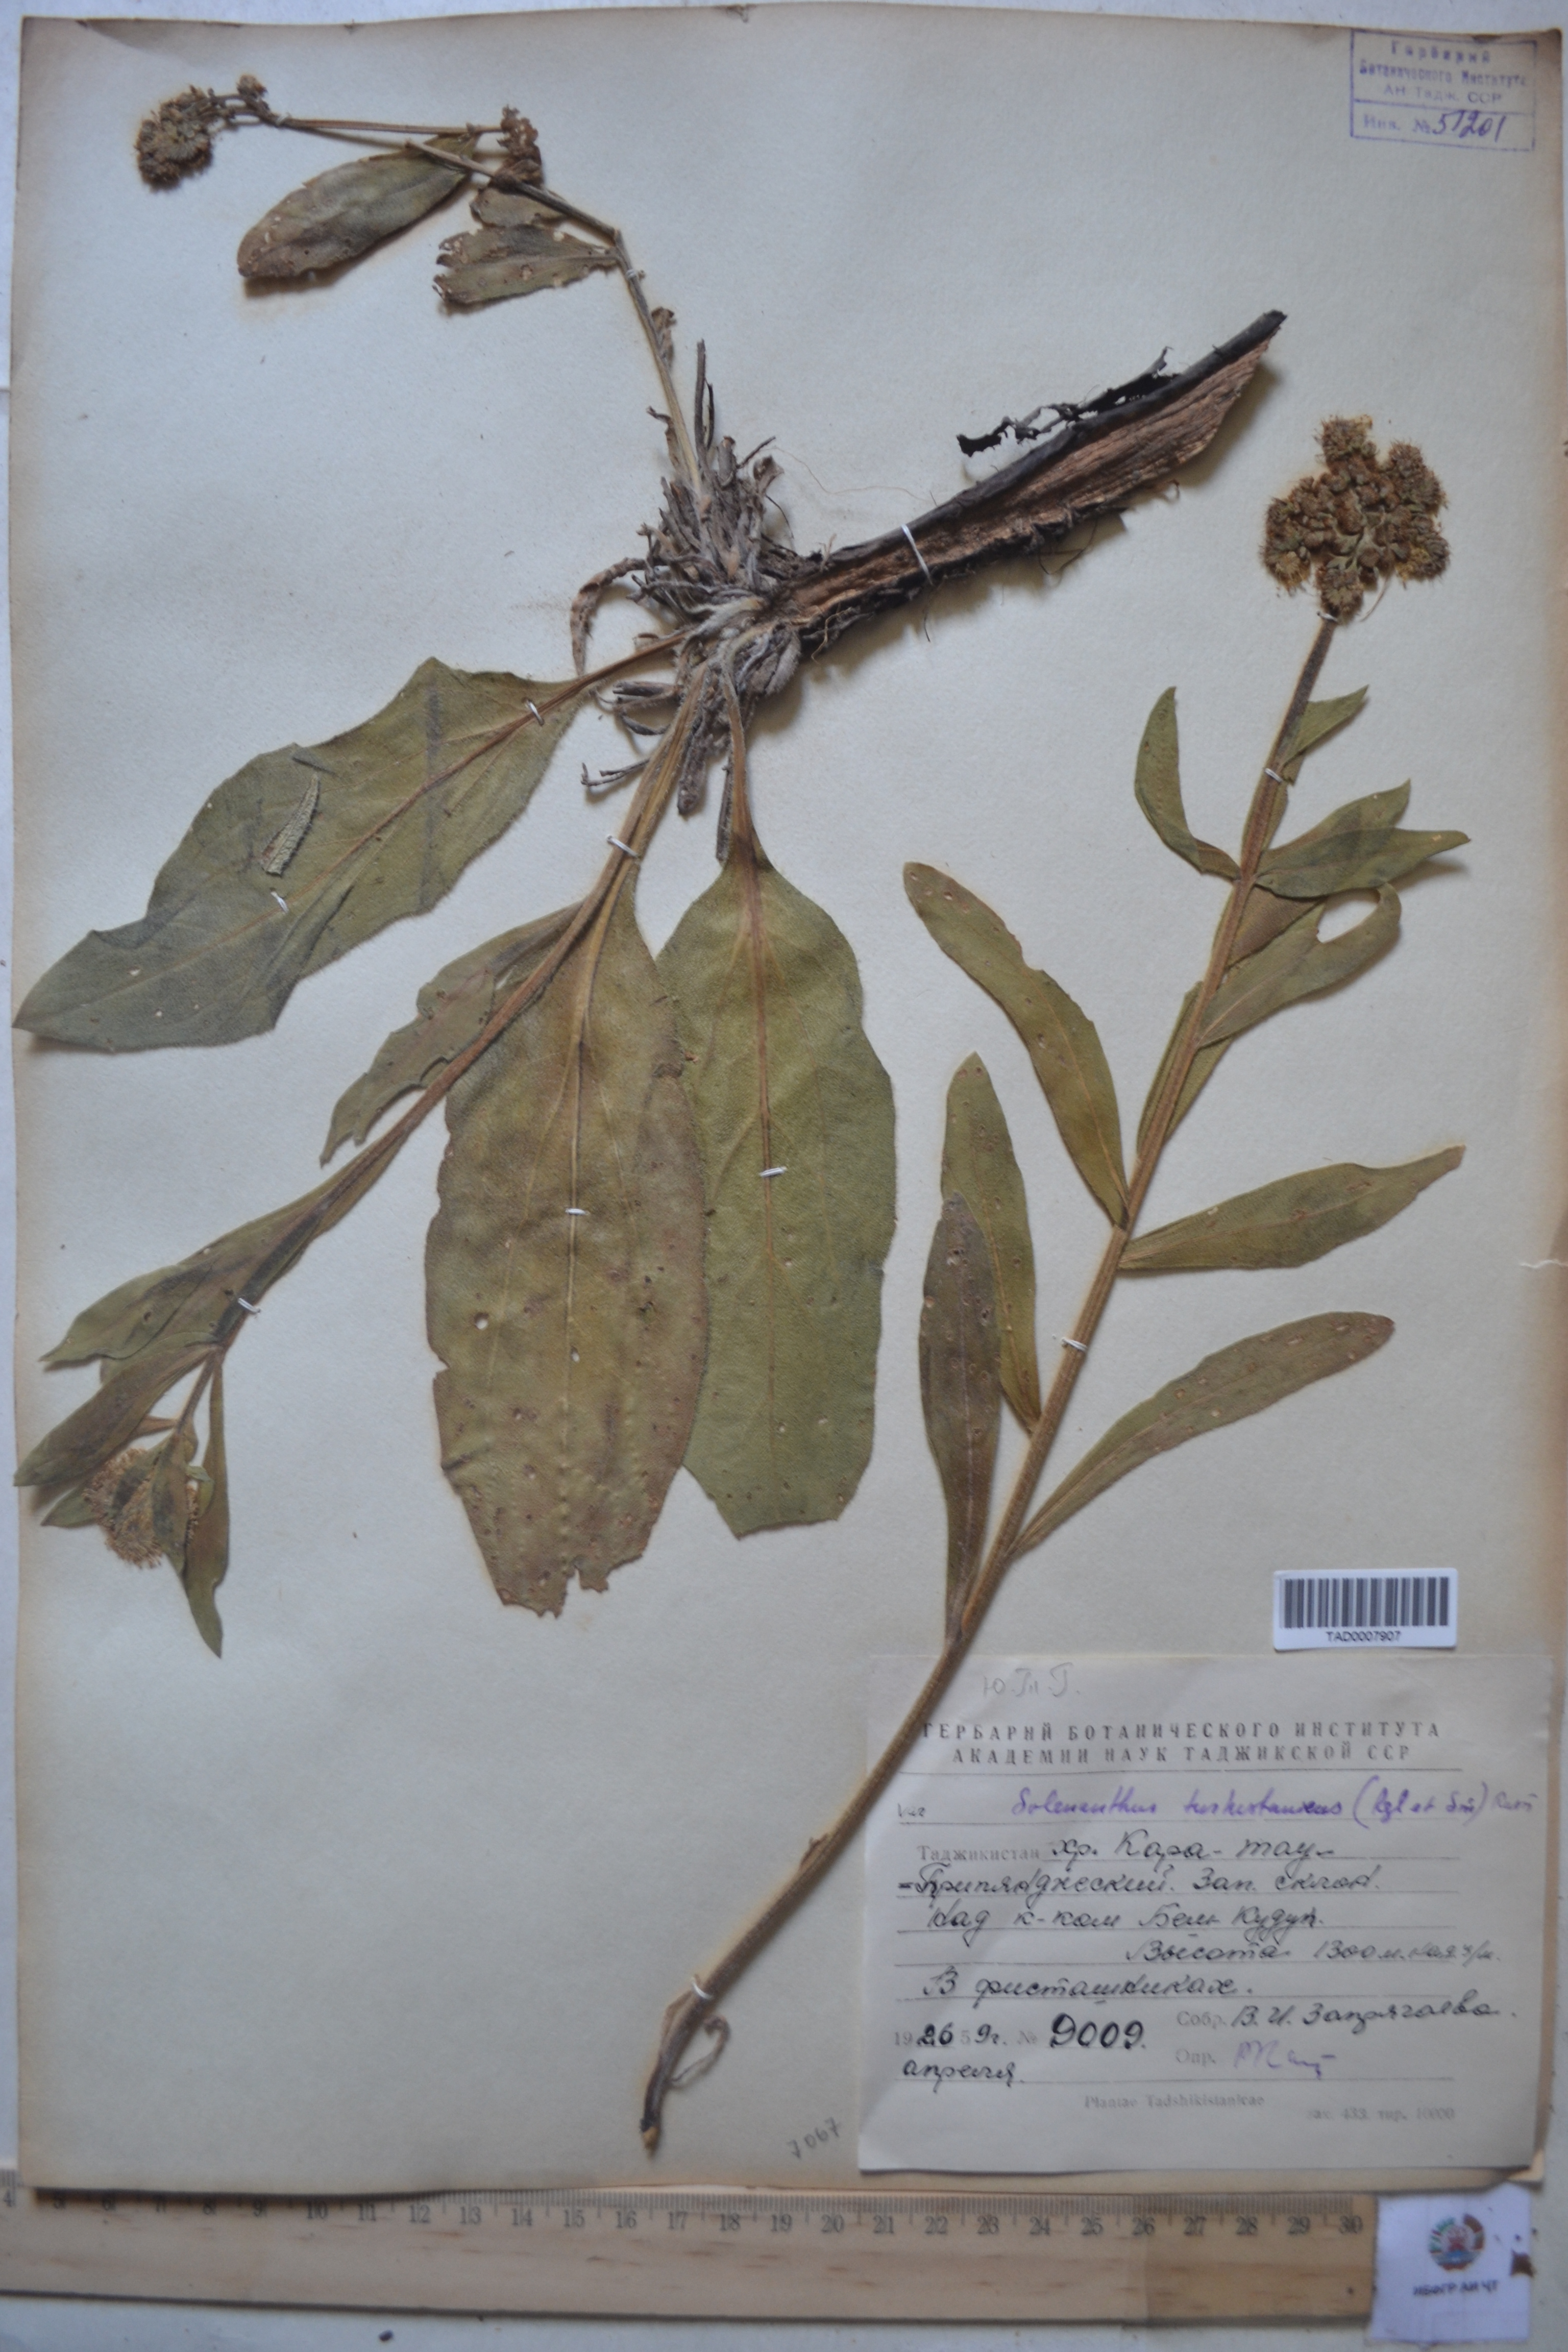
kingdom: Plantae
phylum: Tracheophyta
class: Magnoliopsida
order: Boraginales
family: Boraginaceae
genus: Solenanthus
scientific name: Solenanthus turkestanicus
